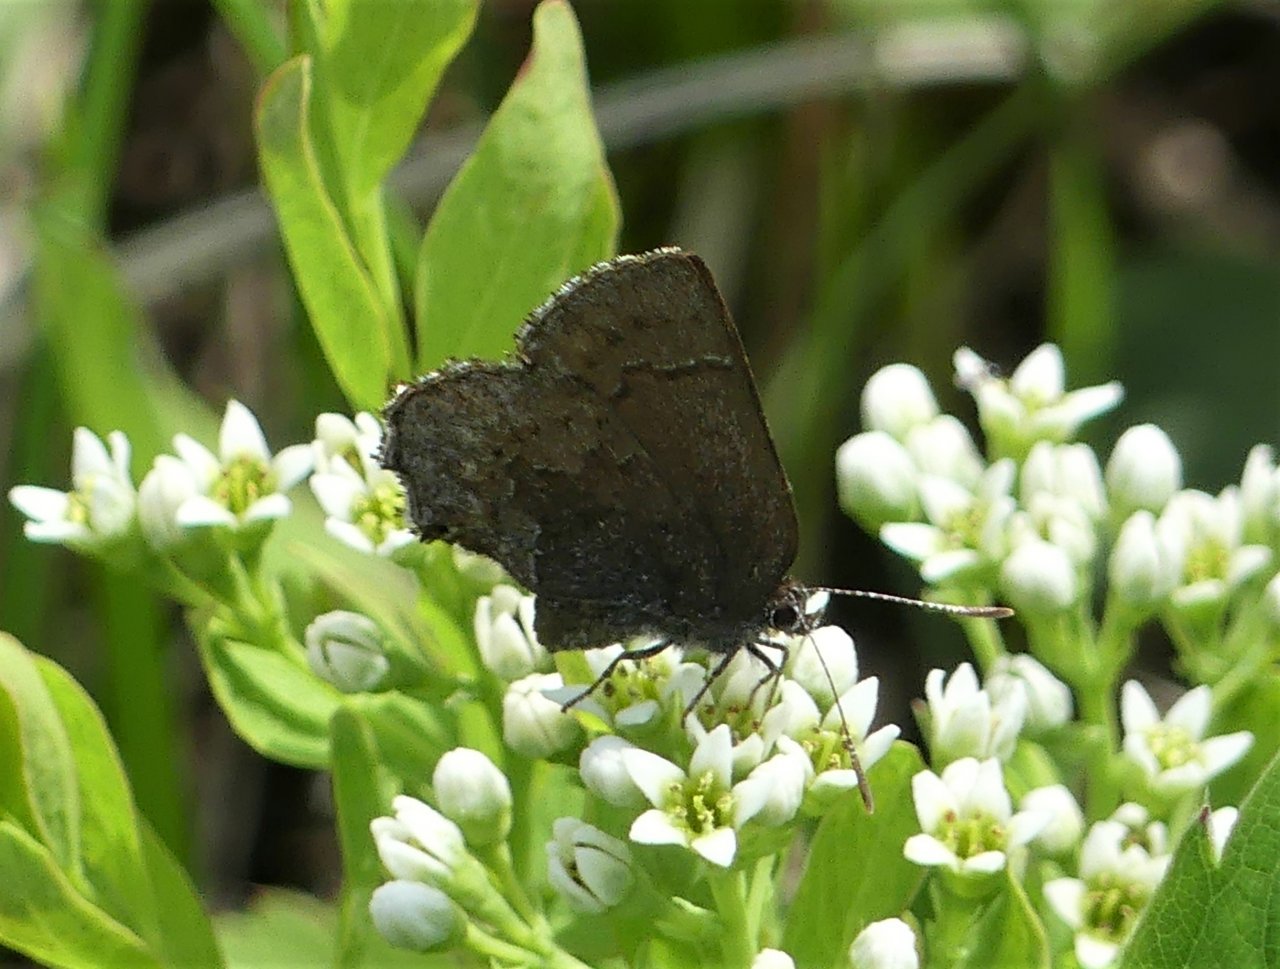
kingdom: Animalia
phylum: Arthropoda
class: Insecta
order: Lepidoptera
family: Lycaenidae
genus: Callophrys
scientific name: Callophrys polios
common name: Hoary Elfin
